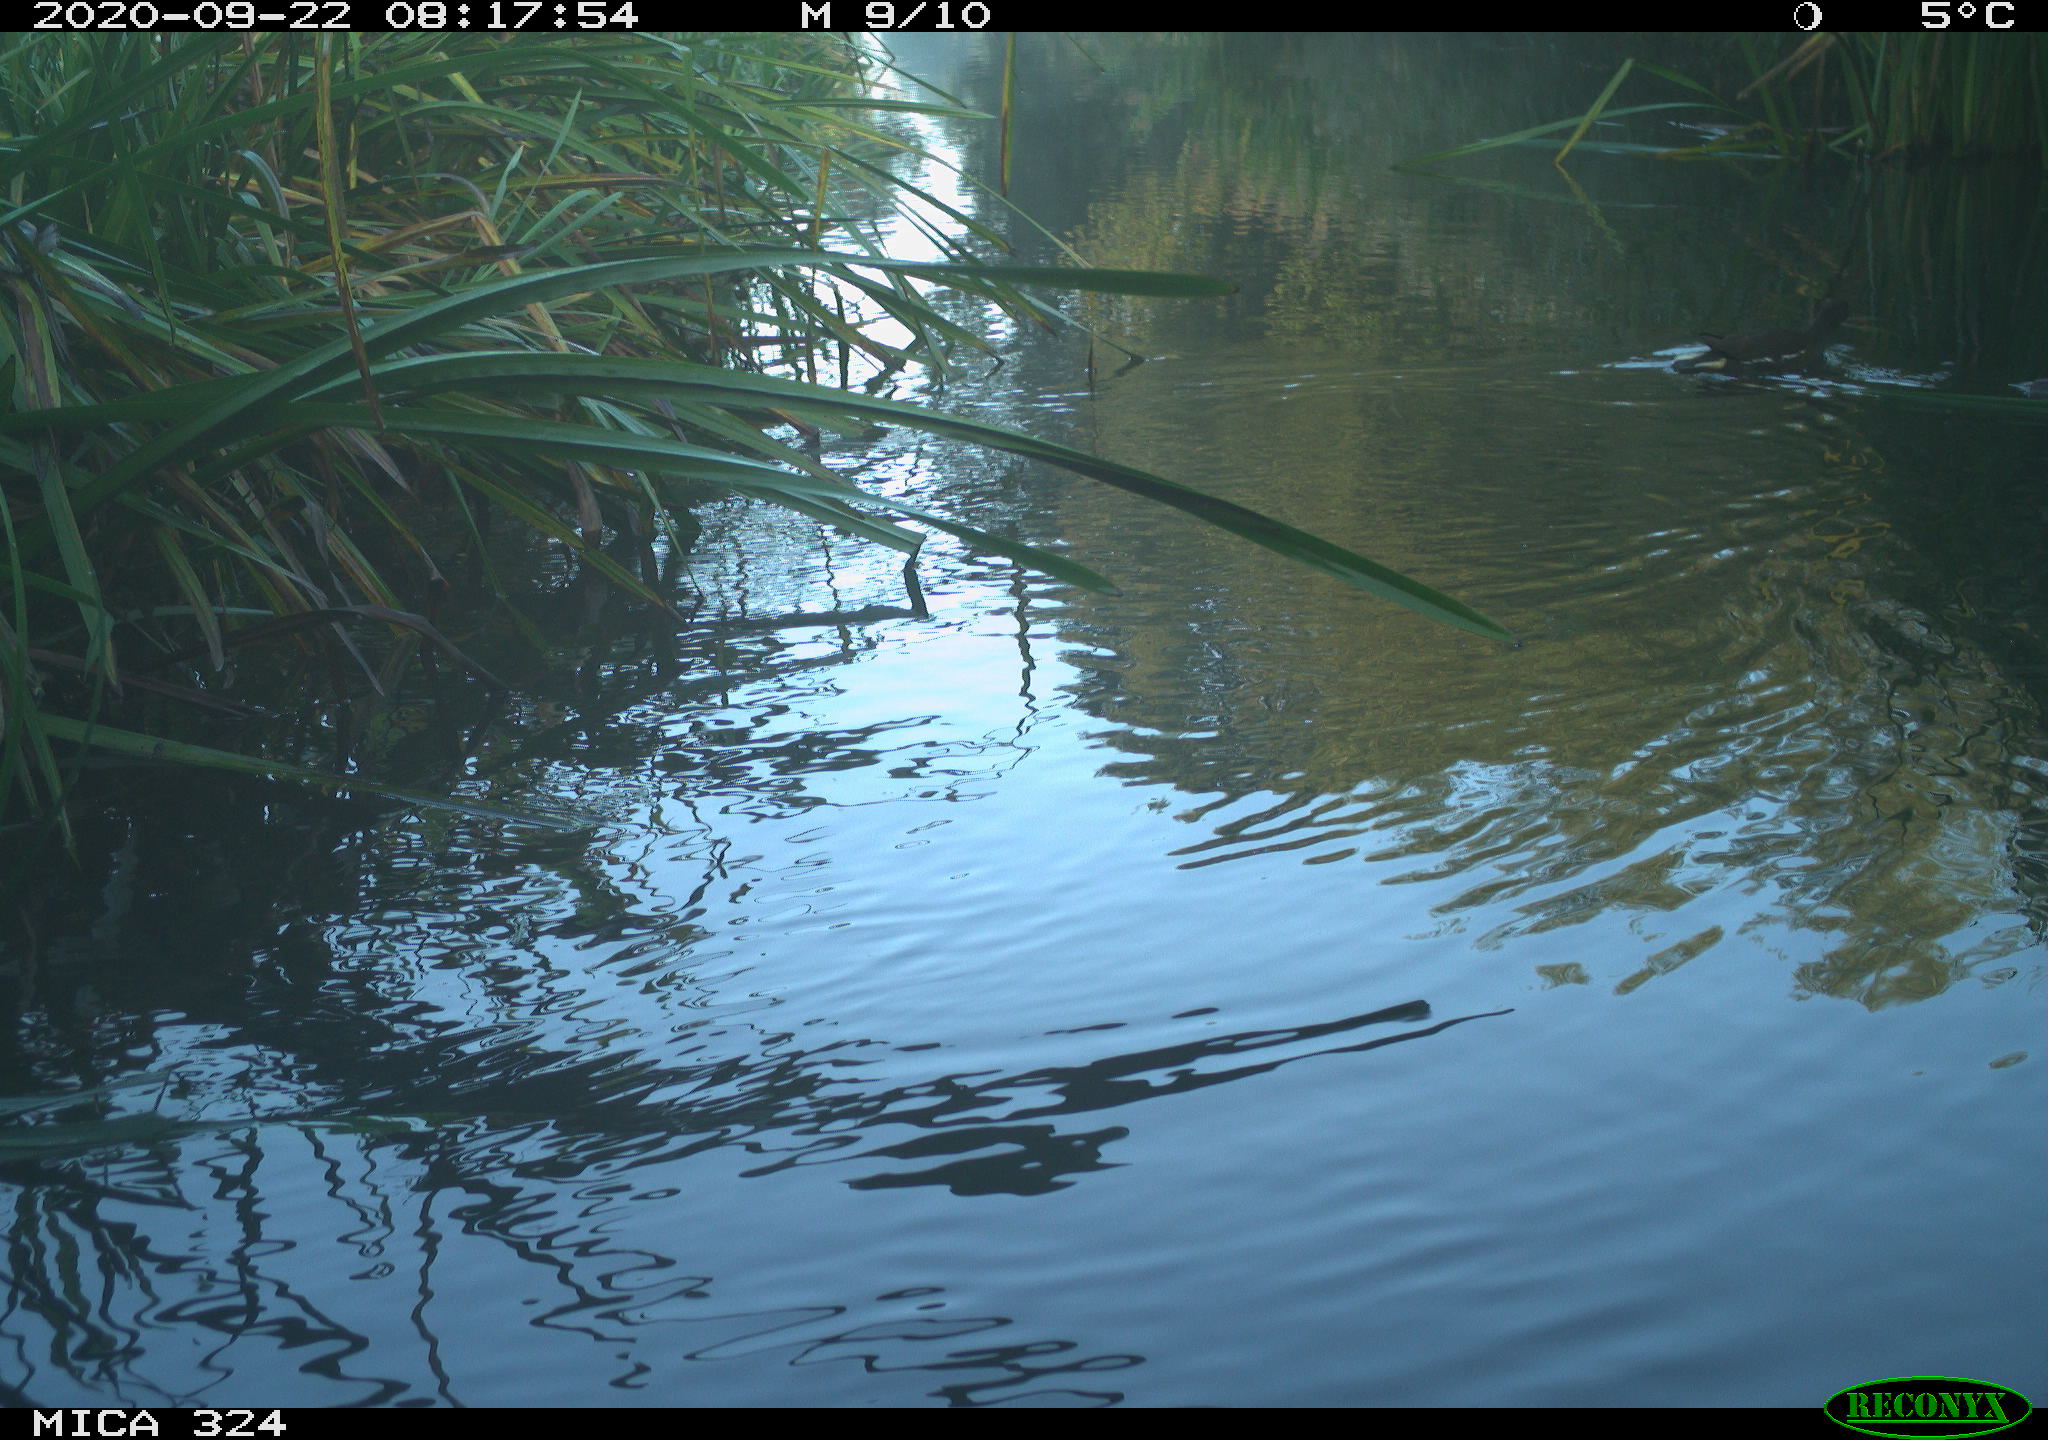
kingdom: Animalia
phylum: Chordata
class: Aves
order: Gruiformes
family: Rallidae
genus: Gallinula
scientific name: Gallinula chloropus
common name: Common moorhen
